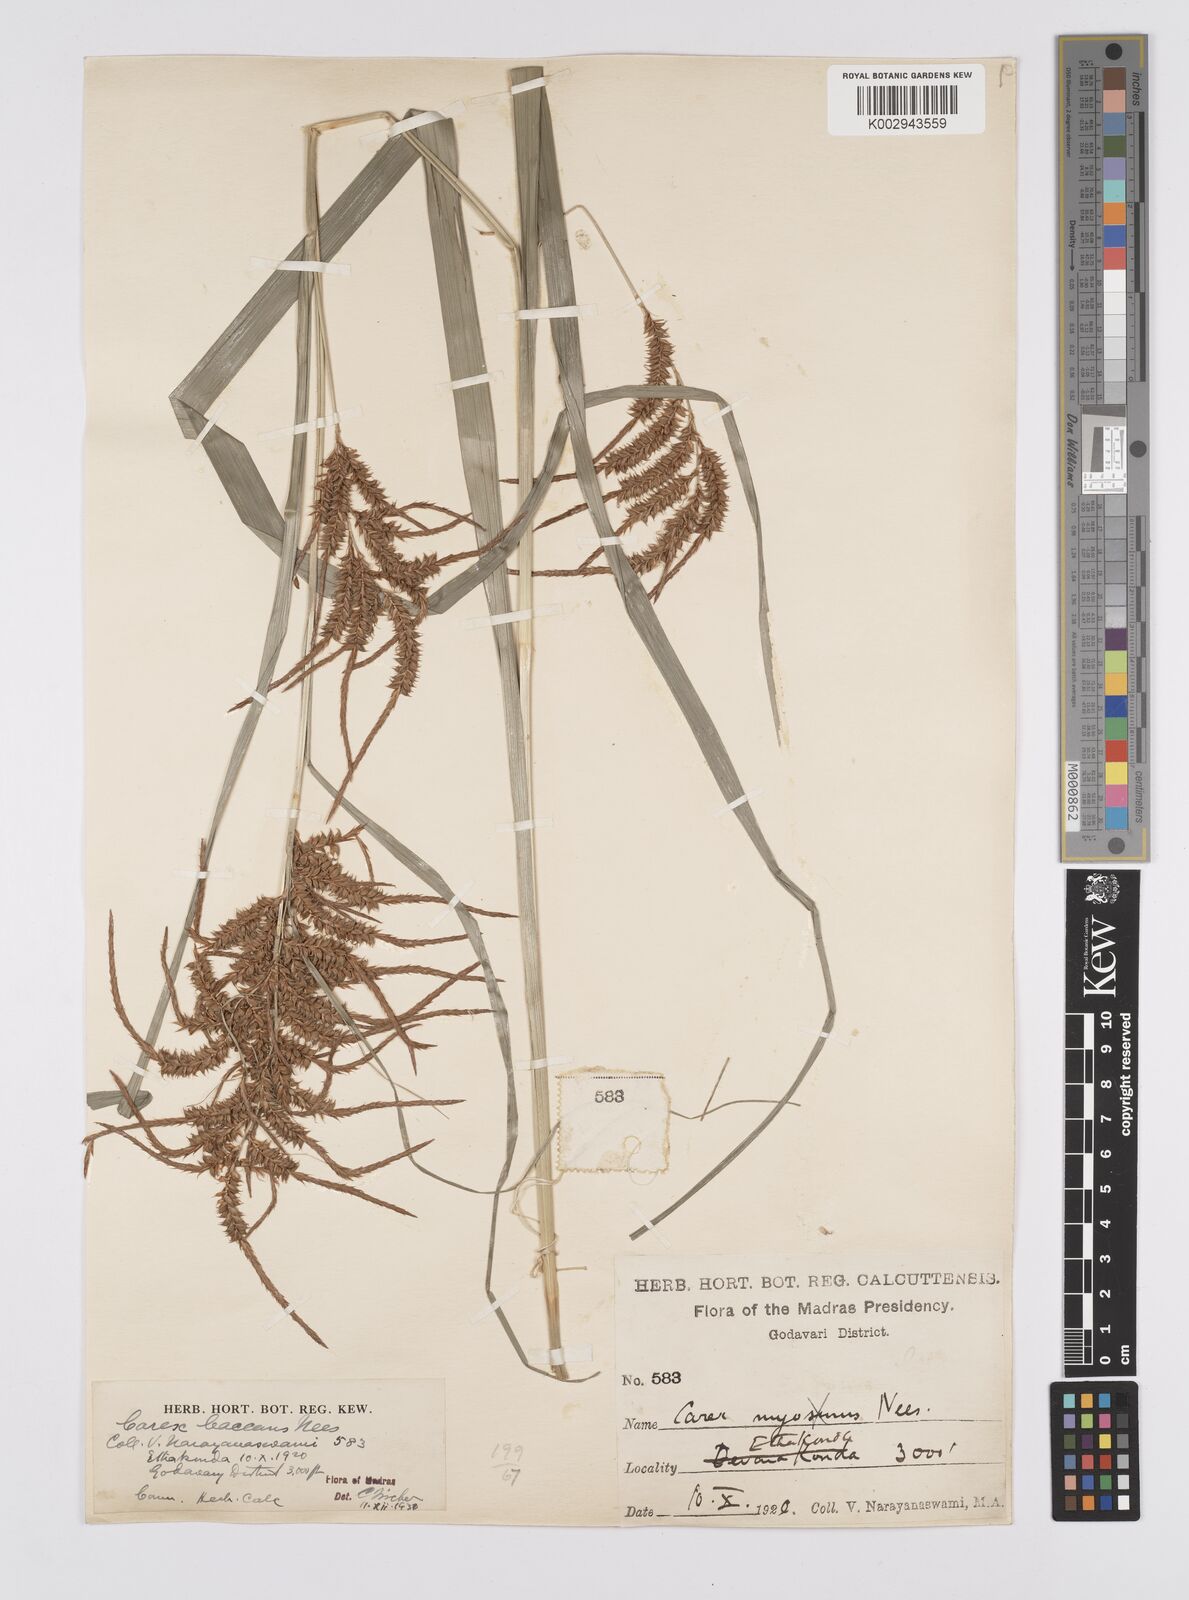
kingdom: Plantae
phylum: Tracheophyta
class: Liliopsida
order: Poales
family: Cyperaceae
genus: Carex
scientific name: Carex baccans
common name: Crimson seeded sedge
